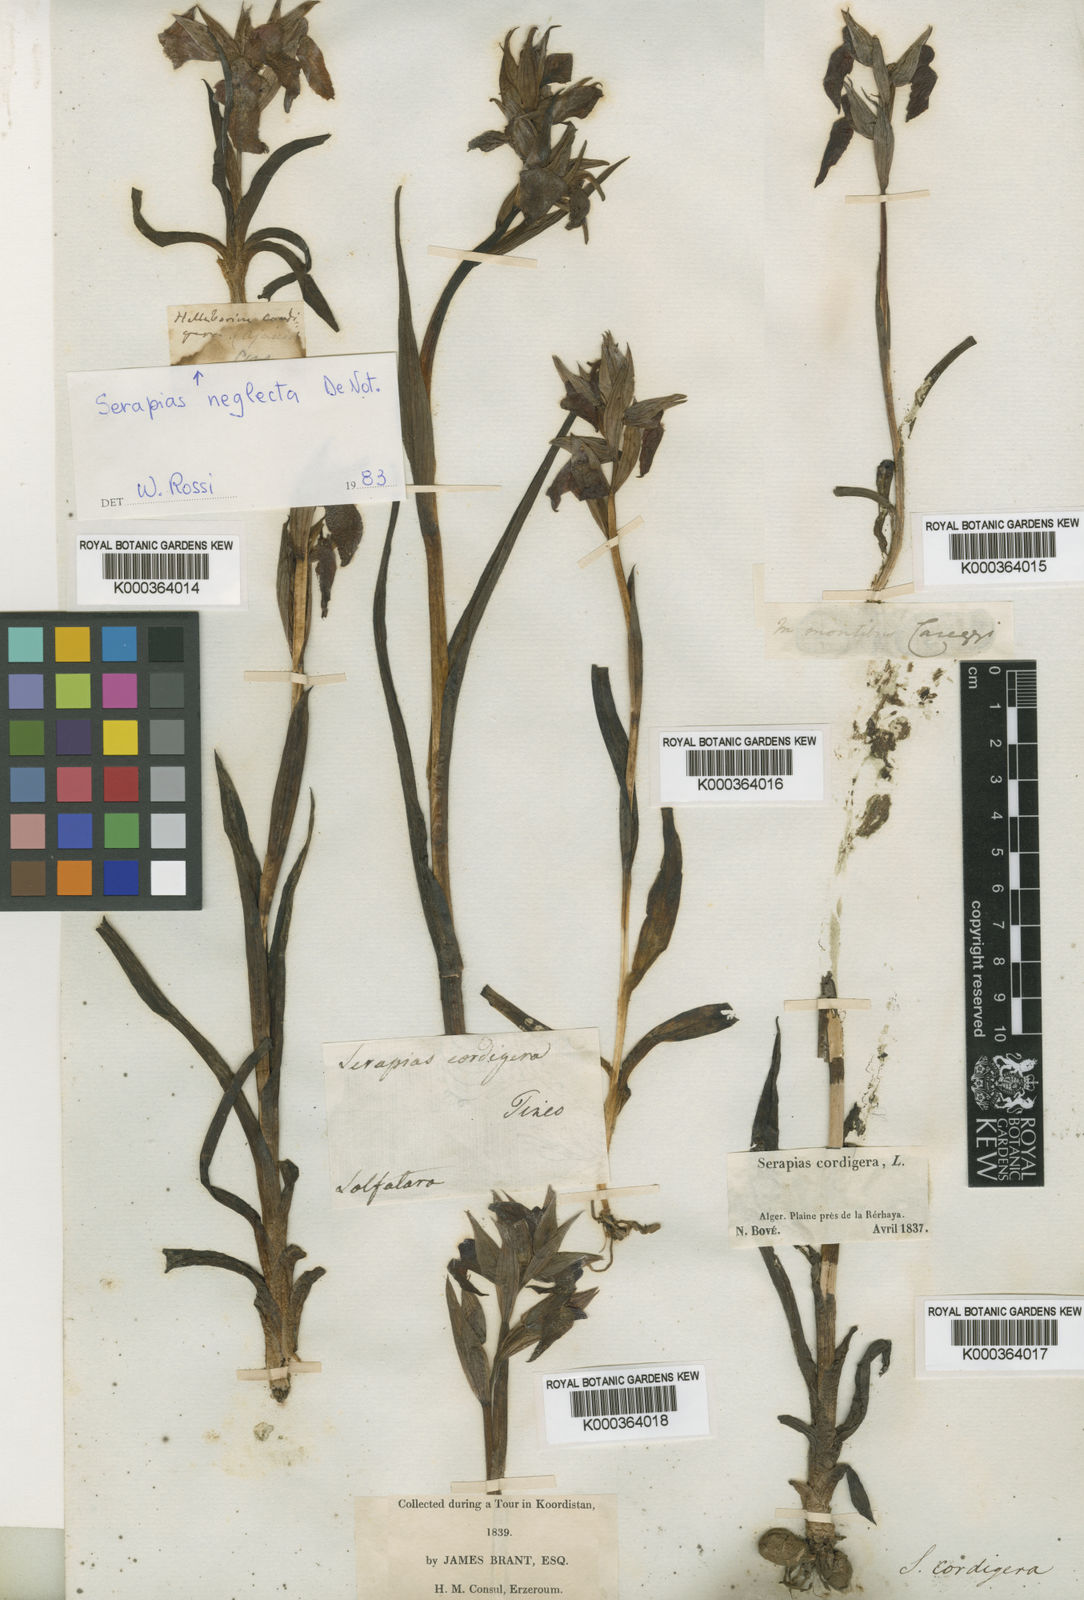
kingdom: Plantae
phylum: Tracheophyta
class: Liliopsida
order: Asparagales
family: Orchidaceae
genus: Serapias
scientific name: Serapias cordigera
